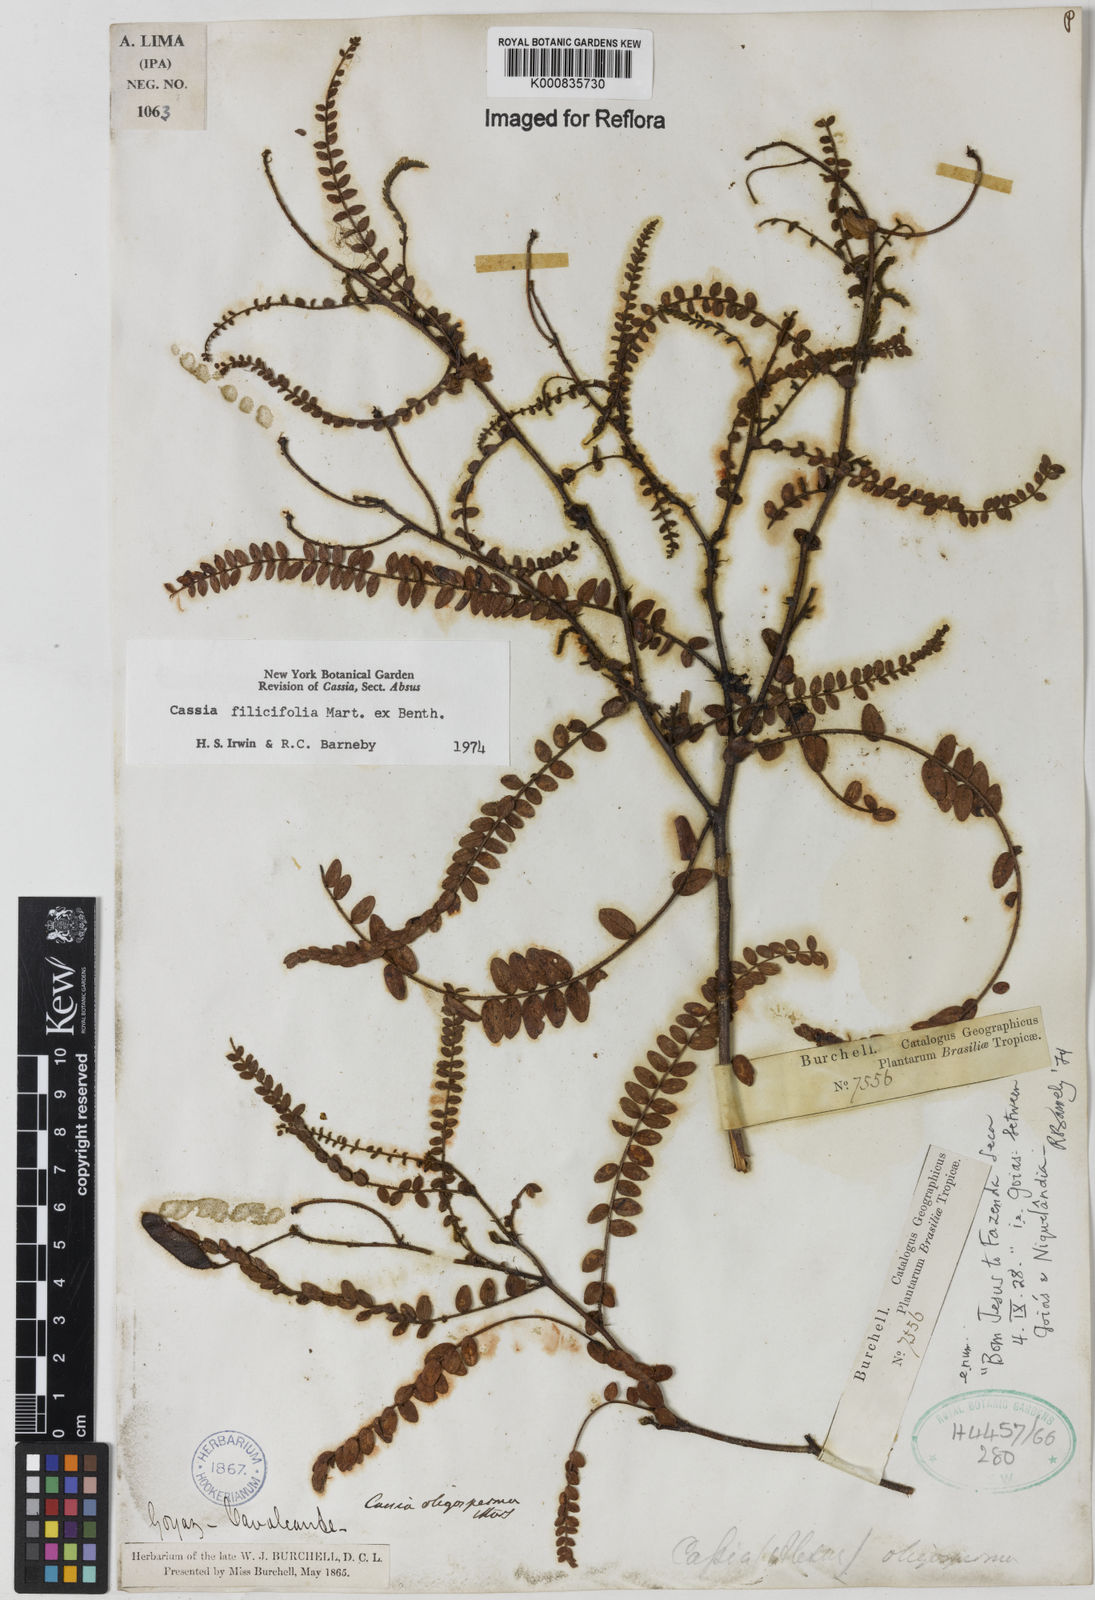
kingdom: Plantae
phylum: Tracheophyta
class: Magnoliopsida
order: Fabales
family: Fabaceae
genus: Chamaecrista
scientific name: Chamaecrista filicifolia
